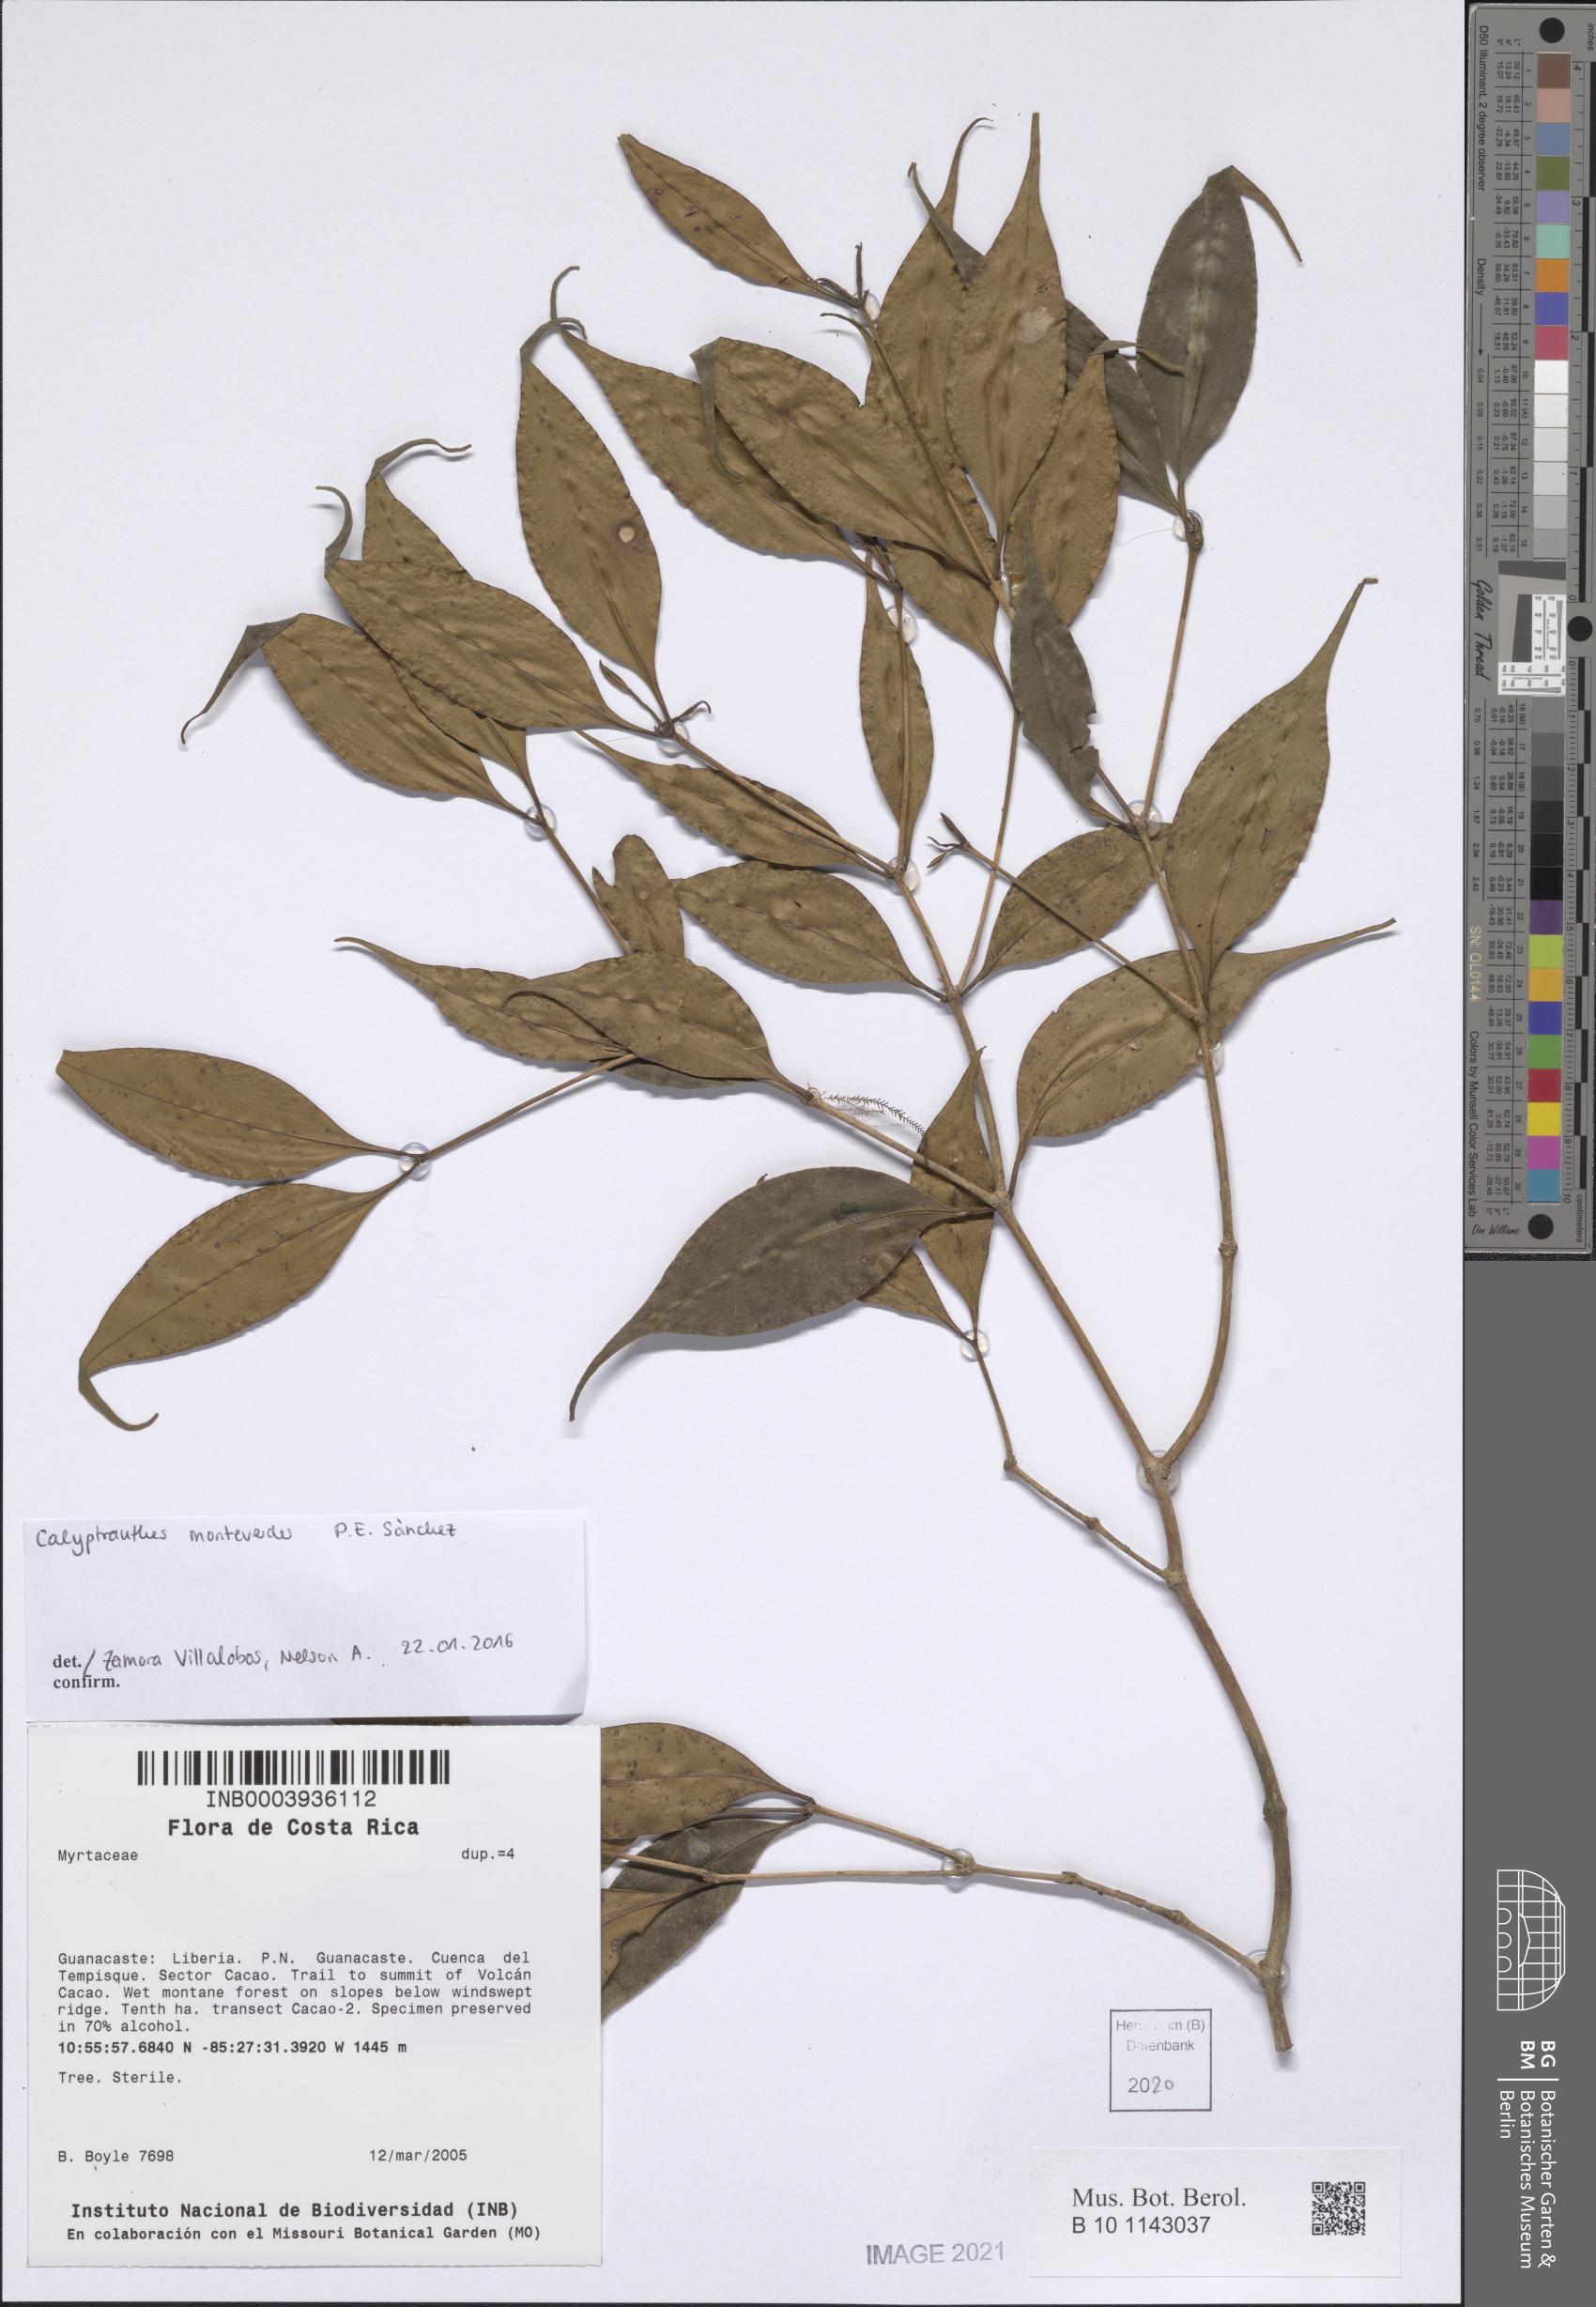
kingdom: Plantae
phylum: Tracheophyta
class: Magnoliopsida
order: Myrtales
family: Myrtaceae
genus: Myrcia
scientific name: Myrcia monteverdensis
